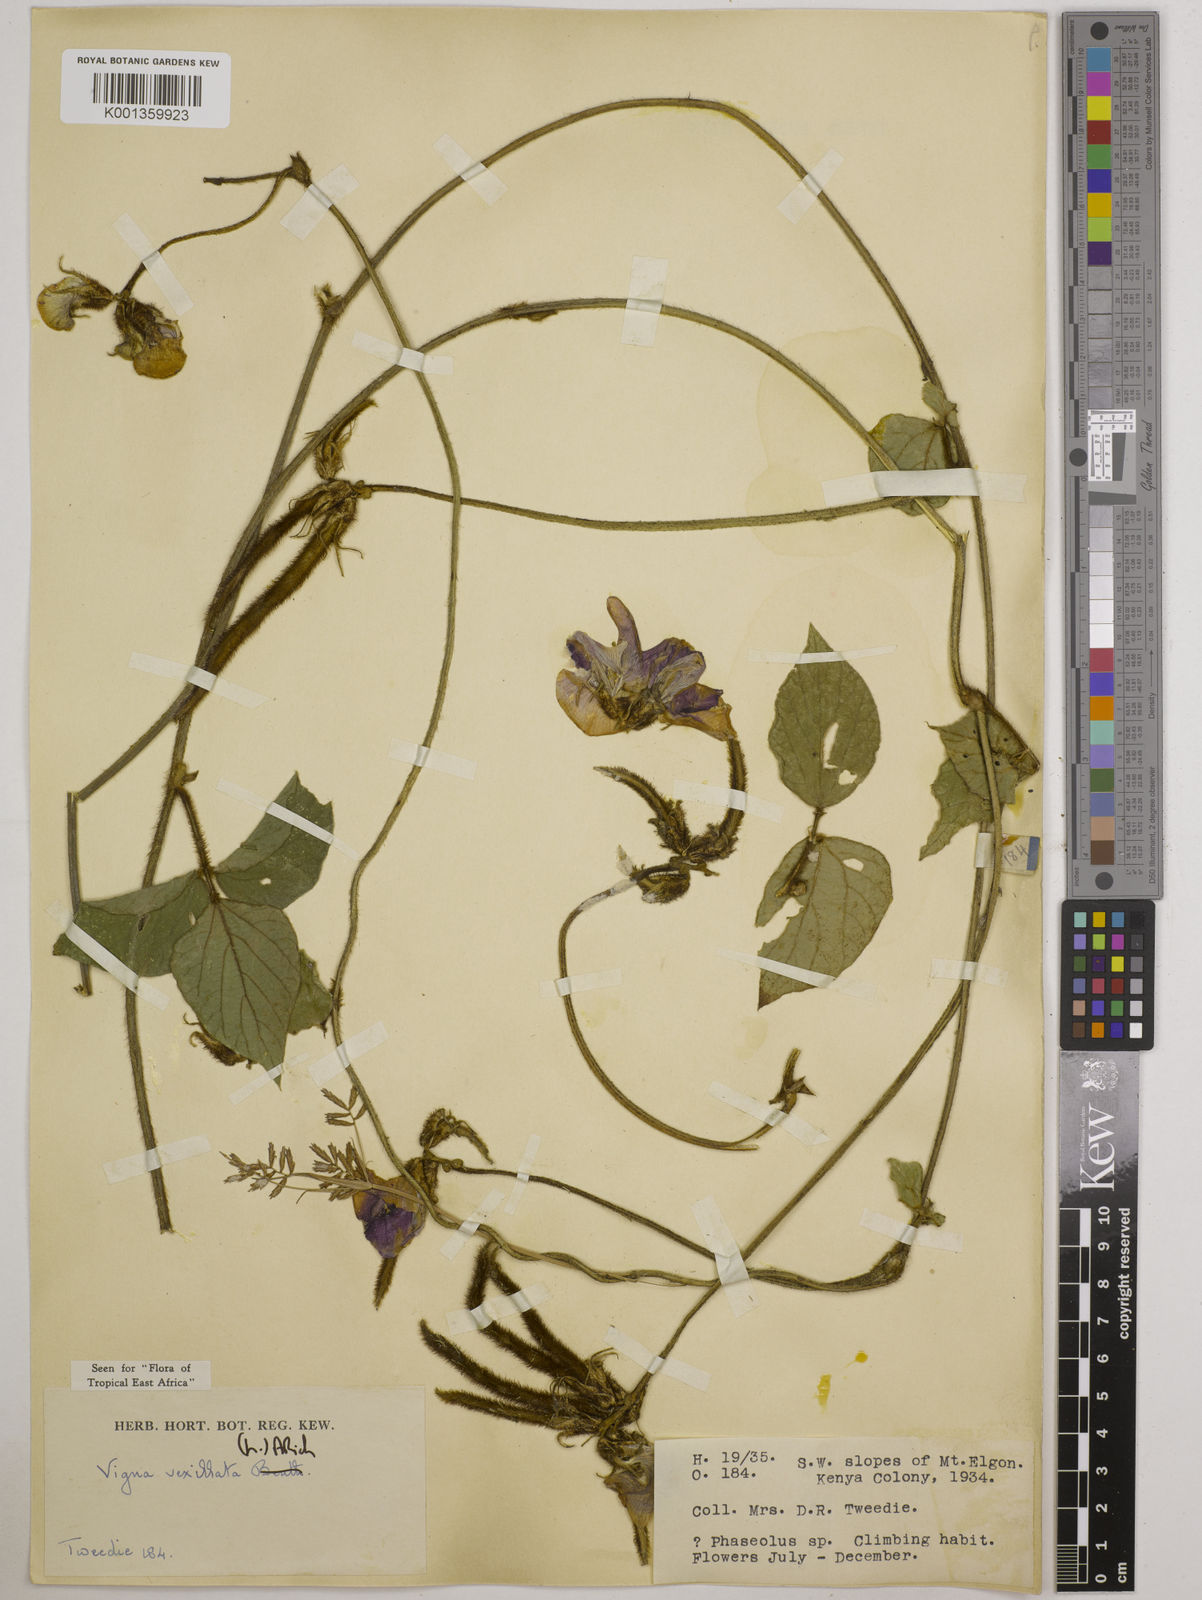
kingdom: Plantae
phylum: Tracheophyta
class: Magnoliopsida
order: Fabales
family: Fabaceae
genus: Vigna
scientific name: Vigna vexillata
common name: Zombi pea
